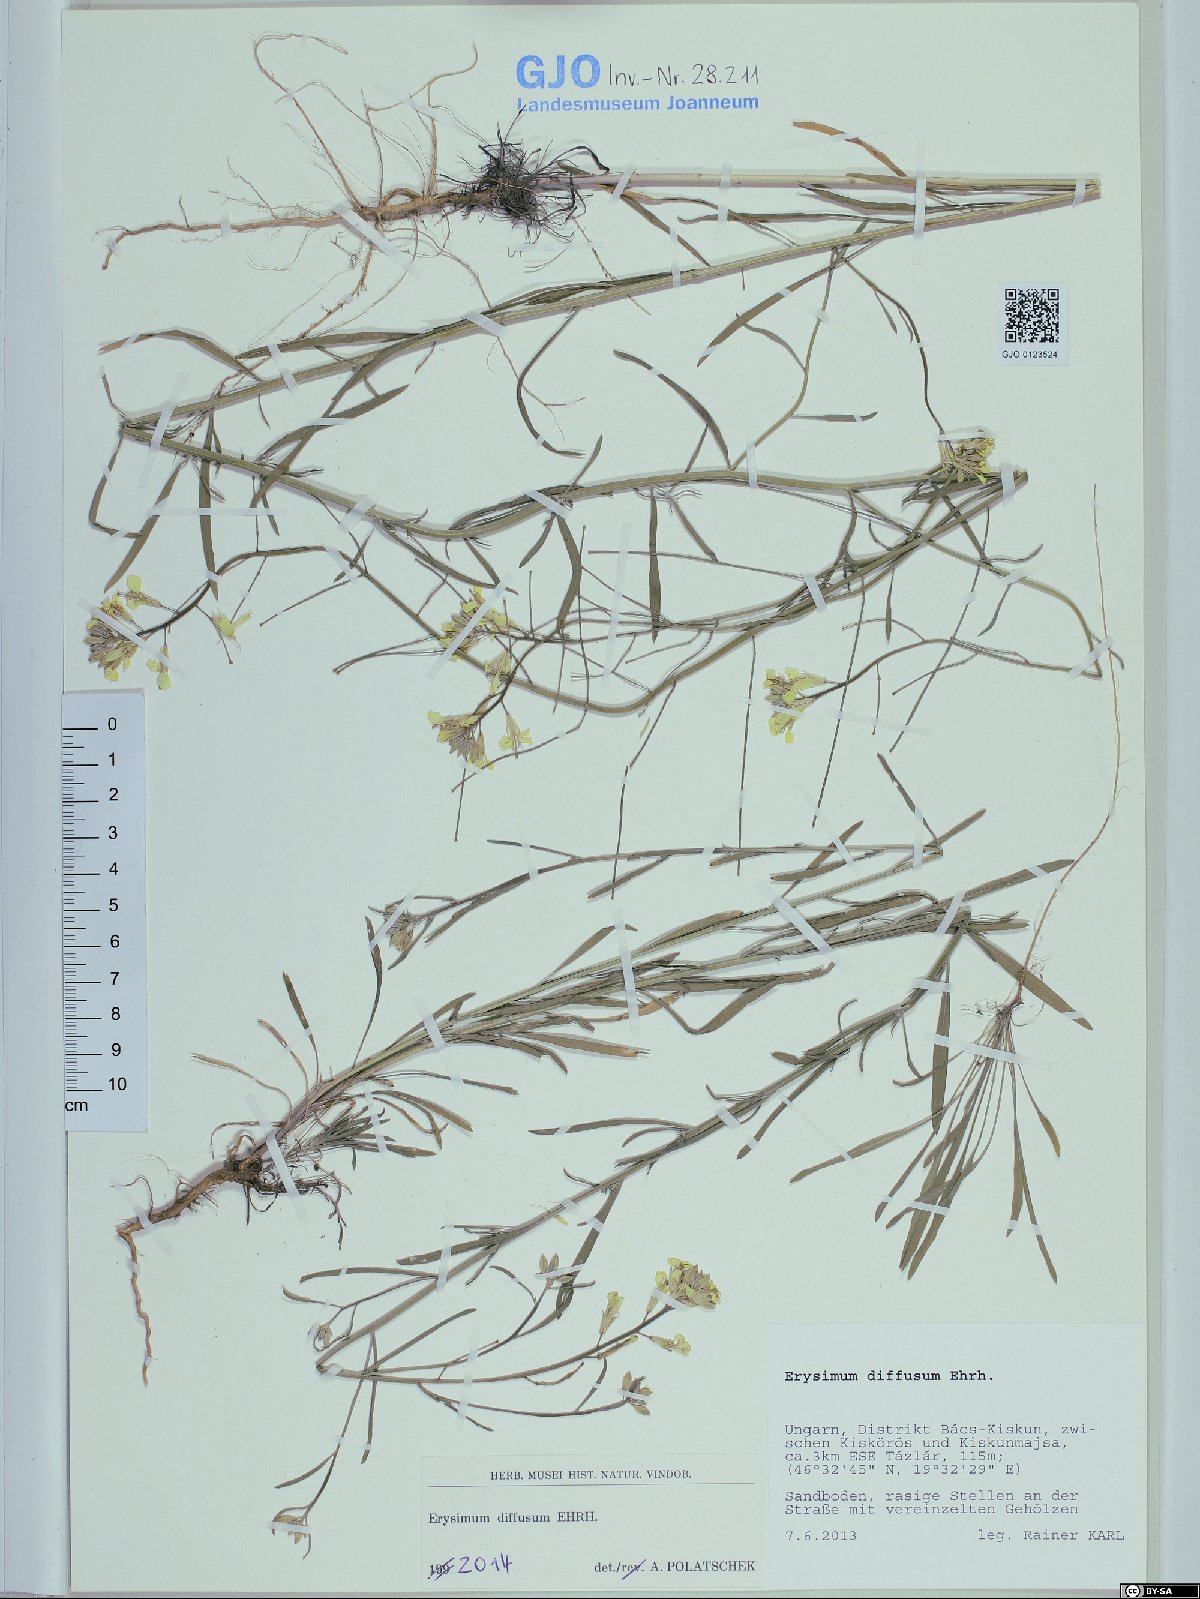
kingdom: Plantae
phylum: Tracheophyta
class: Magnoliopsida
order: Brassicales
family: Brassicaceae
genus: Erysimum
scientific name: Erysimum diffusum
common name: Diffuse wallflower
